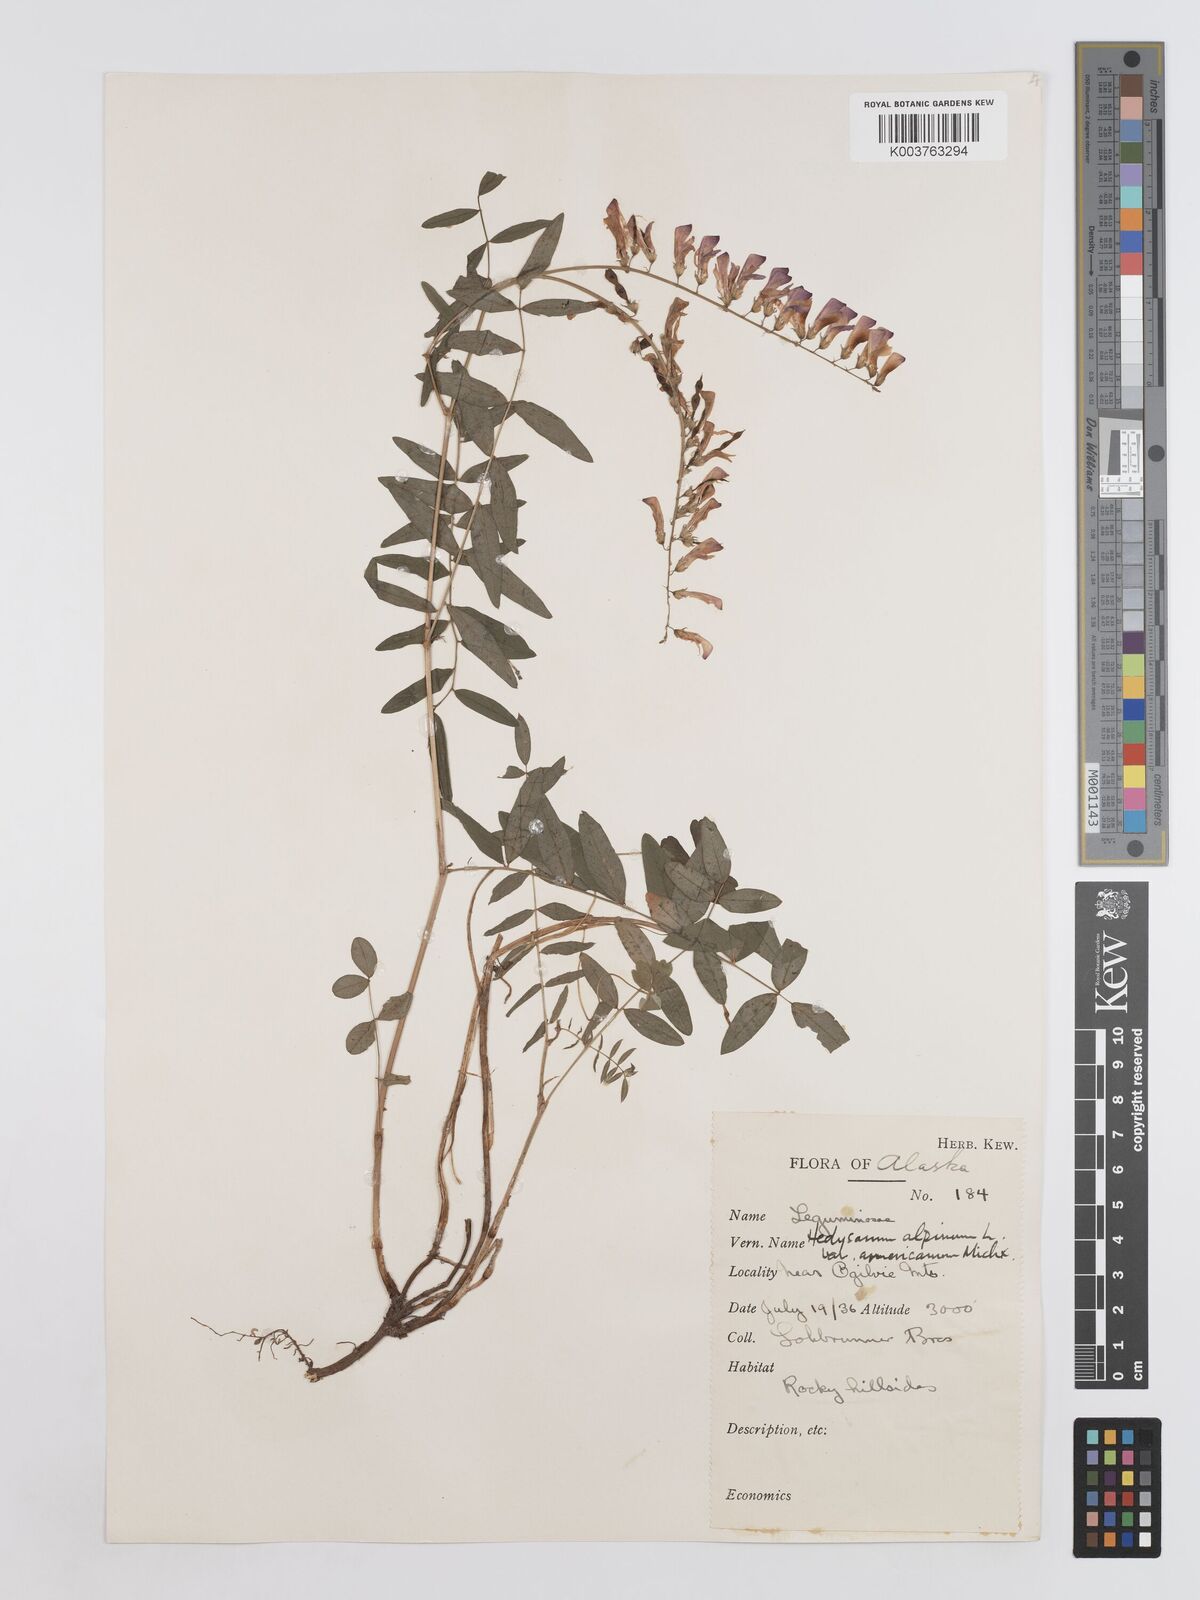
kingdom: Plantae
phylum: Tracheophyta
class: Magnoliopsida
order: Fabales
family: Fabaceae
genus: Hedysarum
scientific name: Hedysarum alpinum
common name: Alpine sweet-vetch
